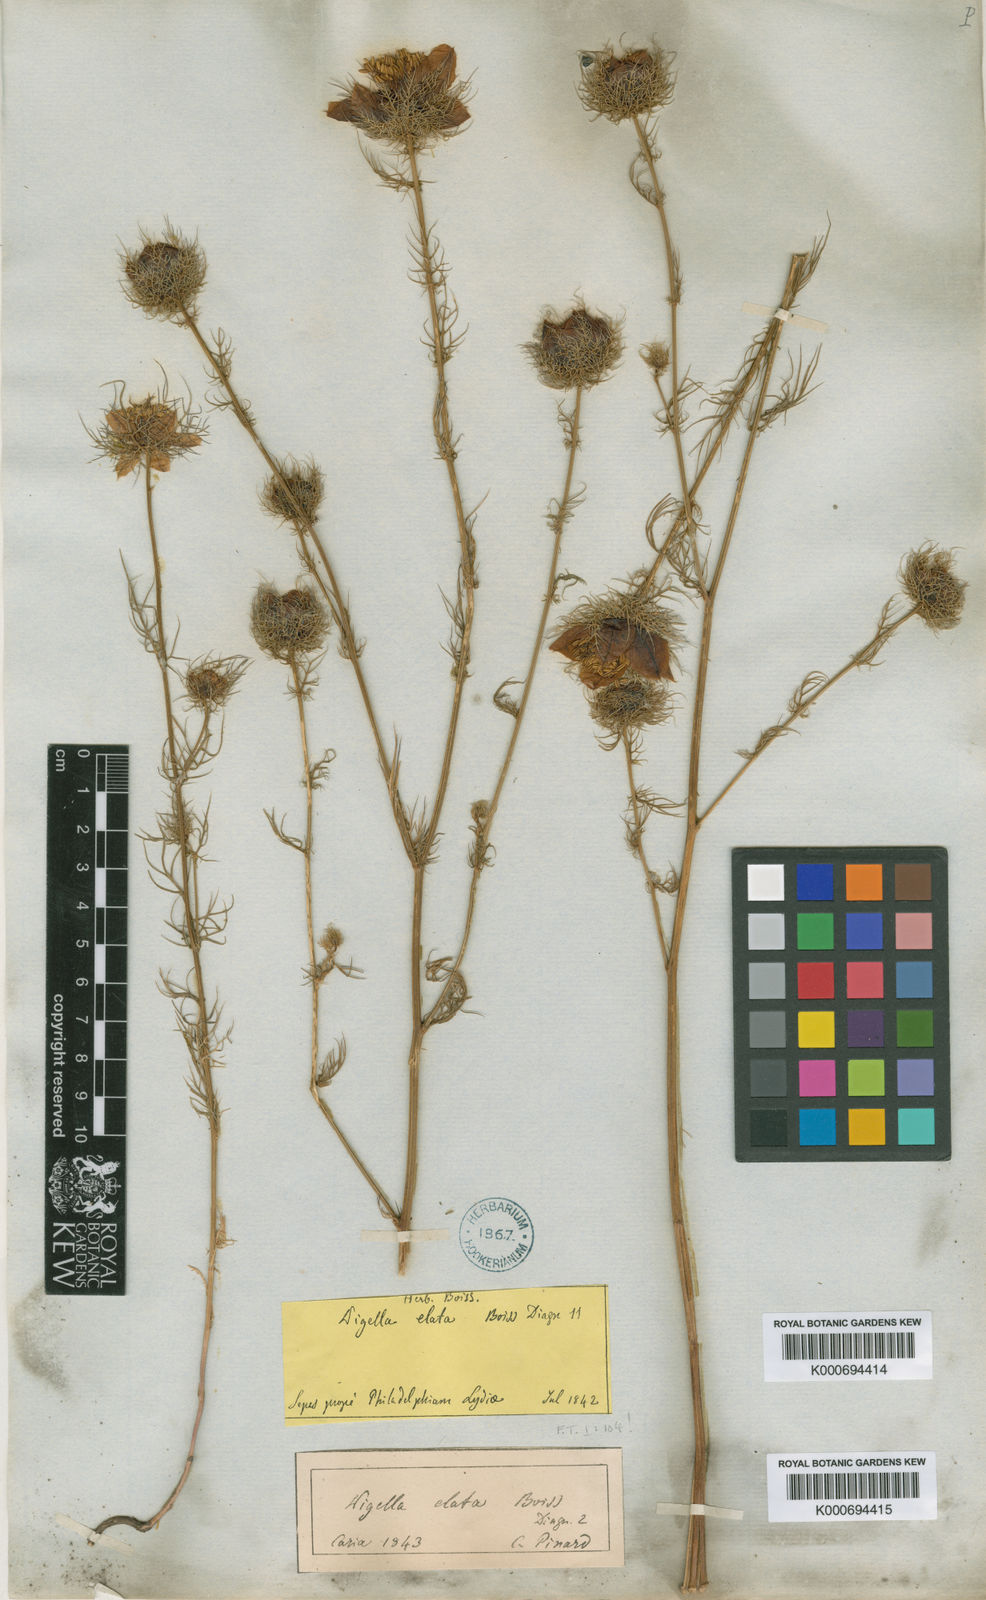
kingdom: Plantae
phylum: Tracheophyta
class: Magnoliopsida
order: Ranunculales
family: Ranunculaceae
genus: Nigella
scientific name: Nigella elata
